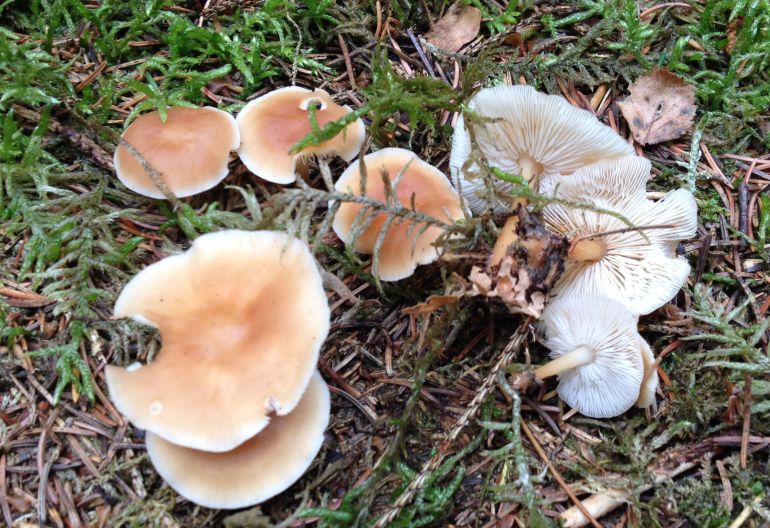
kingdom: Fungi
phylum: Basidiomycota
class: Agaricomycetes
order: Agaricales
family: Omphalotaceae
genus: Gymnopus
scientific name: Gymnopus dryophilus
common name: løv-fladhat
